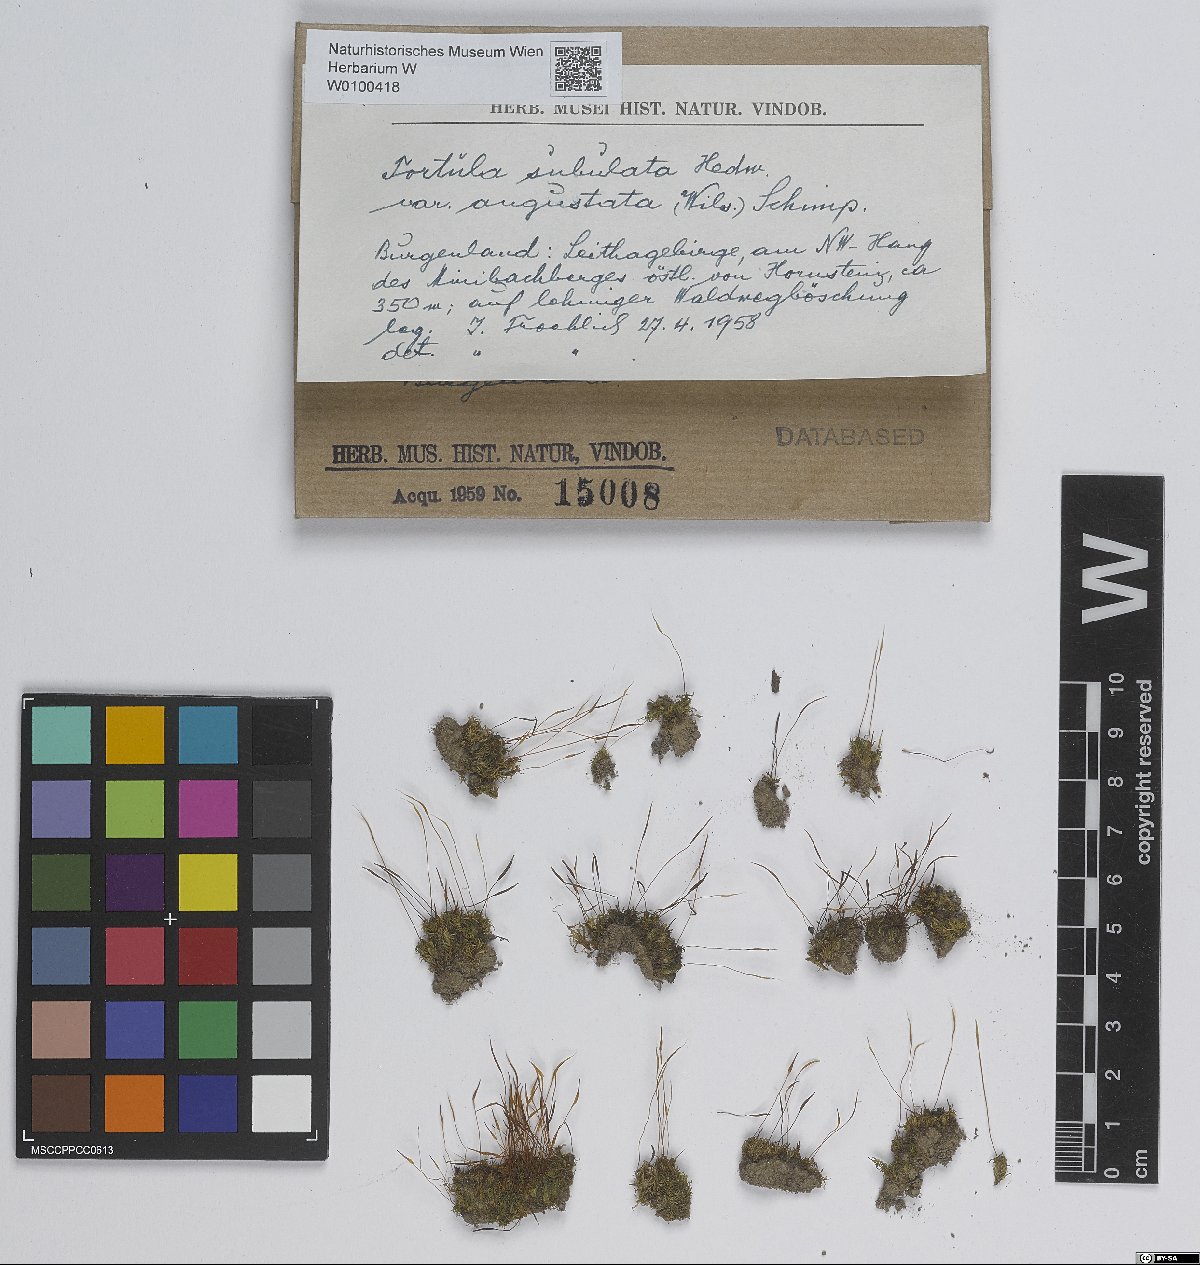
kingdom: Plantae
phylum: Bryophyta
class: Bryopsida
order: Pottiales
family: Pottiaceae
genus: Tortula
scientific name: Tortula schimperi
